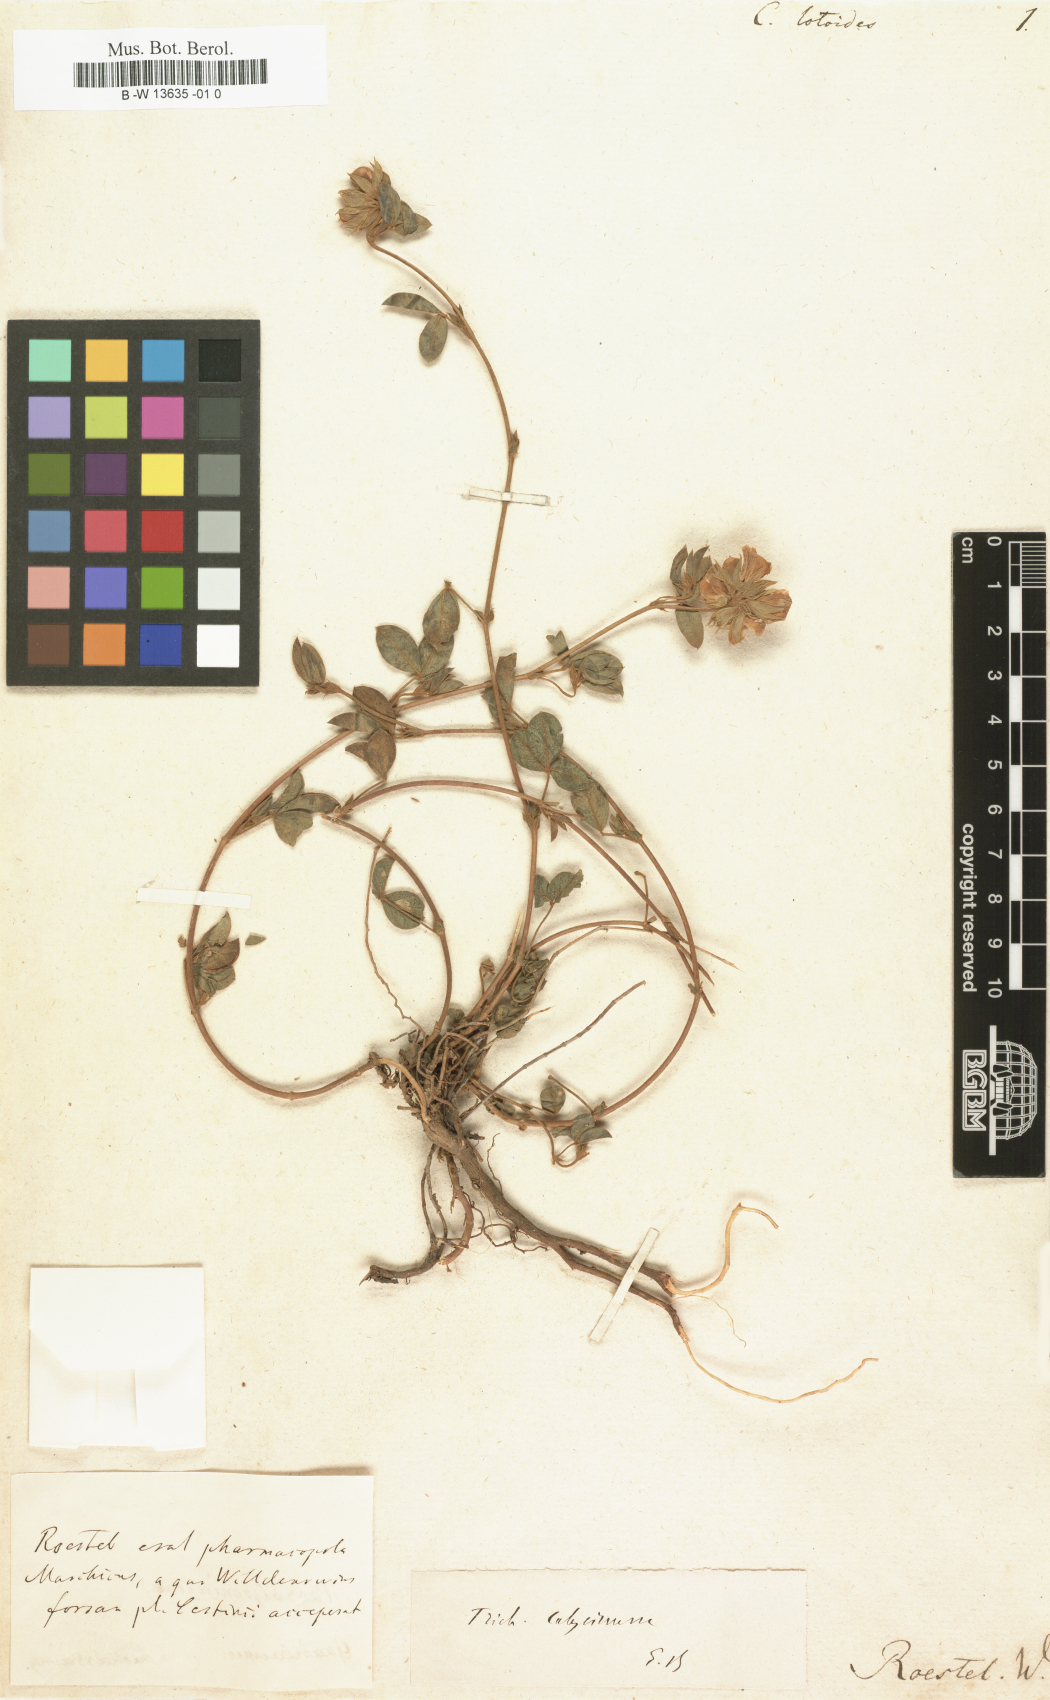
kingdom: Plantae
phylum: Tracheophyta
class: Magnoliopsida
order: Fabales
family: Fabaceae
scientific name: Fabaceae
